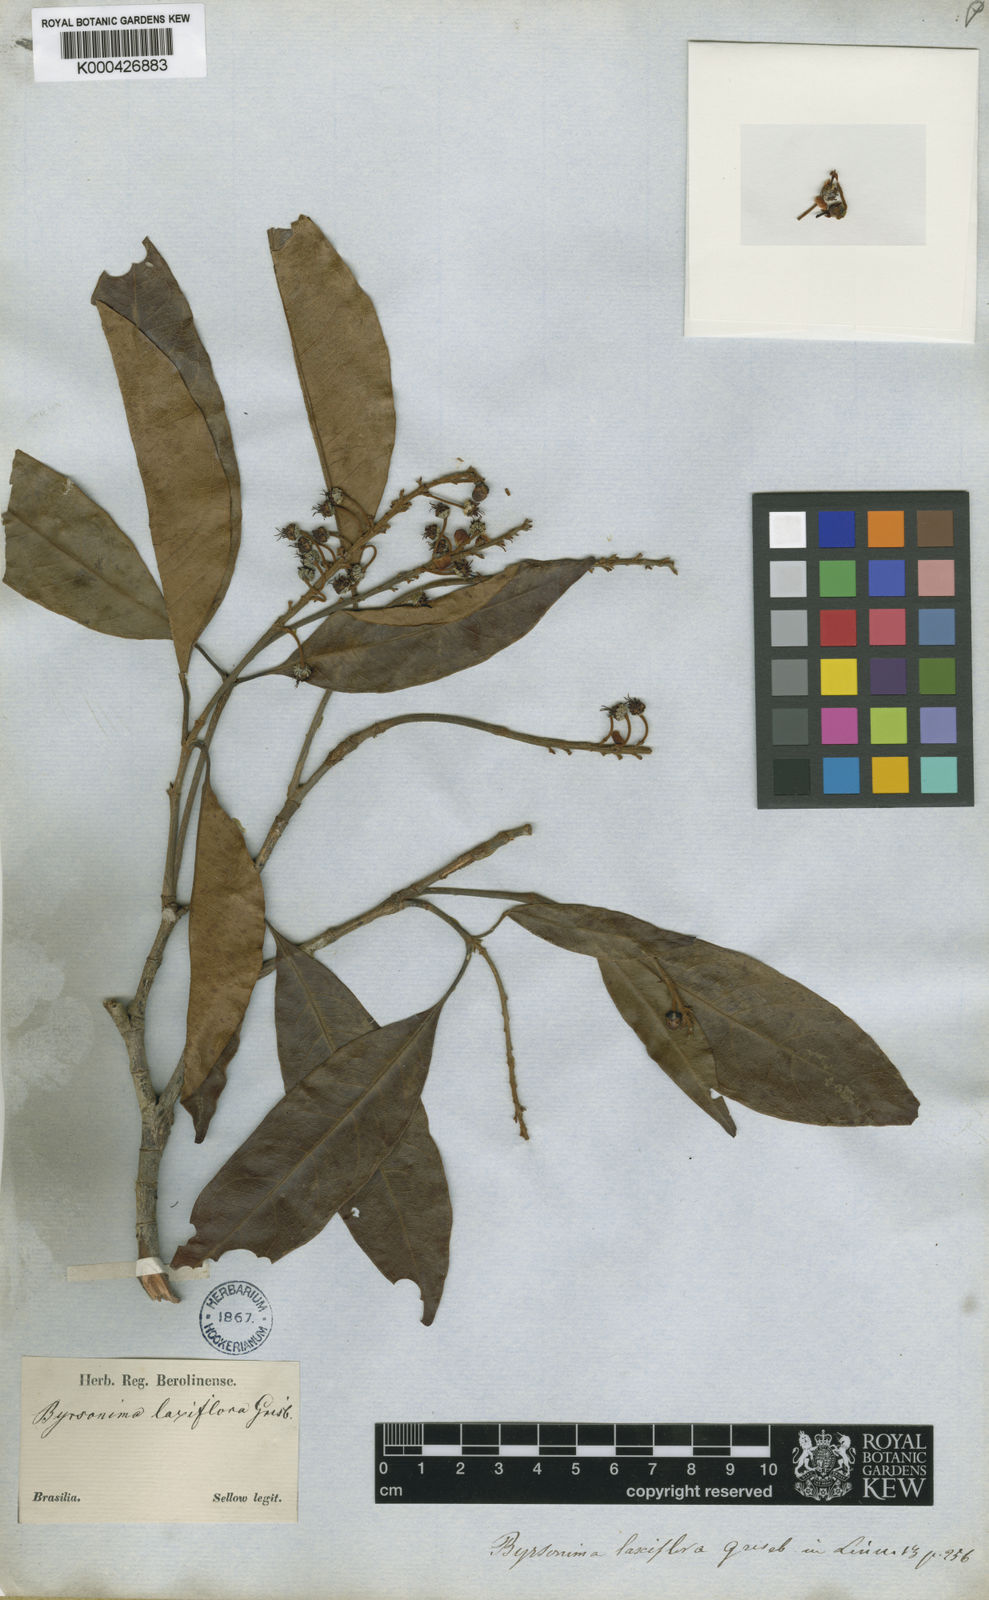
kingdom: Plantae
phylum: Tracheophyta
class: Magnoliopsida
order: Malpighiales
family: Malpighiaceae
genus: Byrsonima
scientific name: Byrsonima laxiflora
